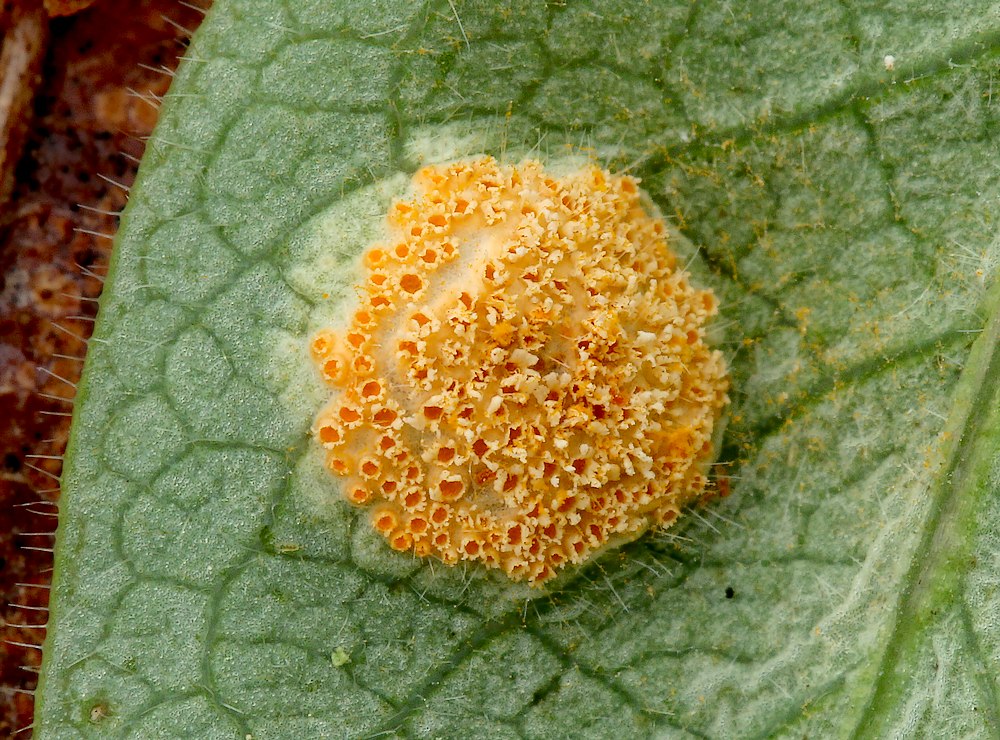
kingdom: Fungi
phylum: Basidiomycota
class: Pucciniomycetes
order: Pucciniales
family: Pucciniaceae
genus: Puccinia
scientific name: Puccinia festucae
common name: gedeblad-tvecellerust
